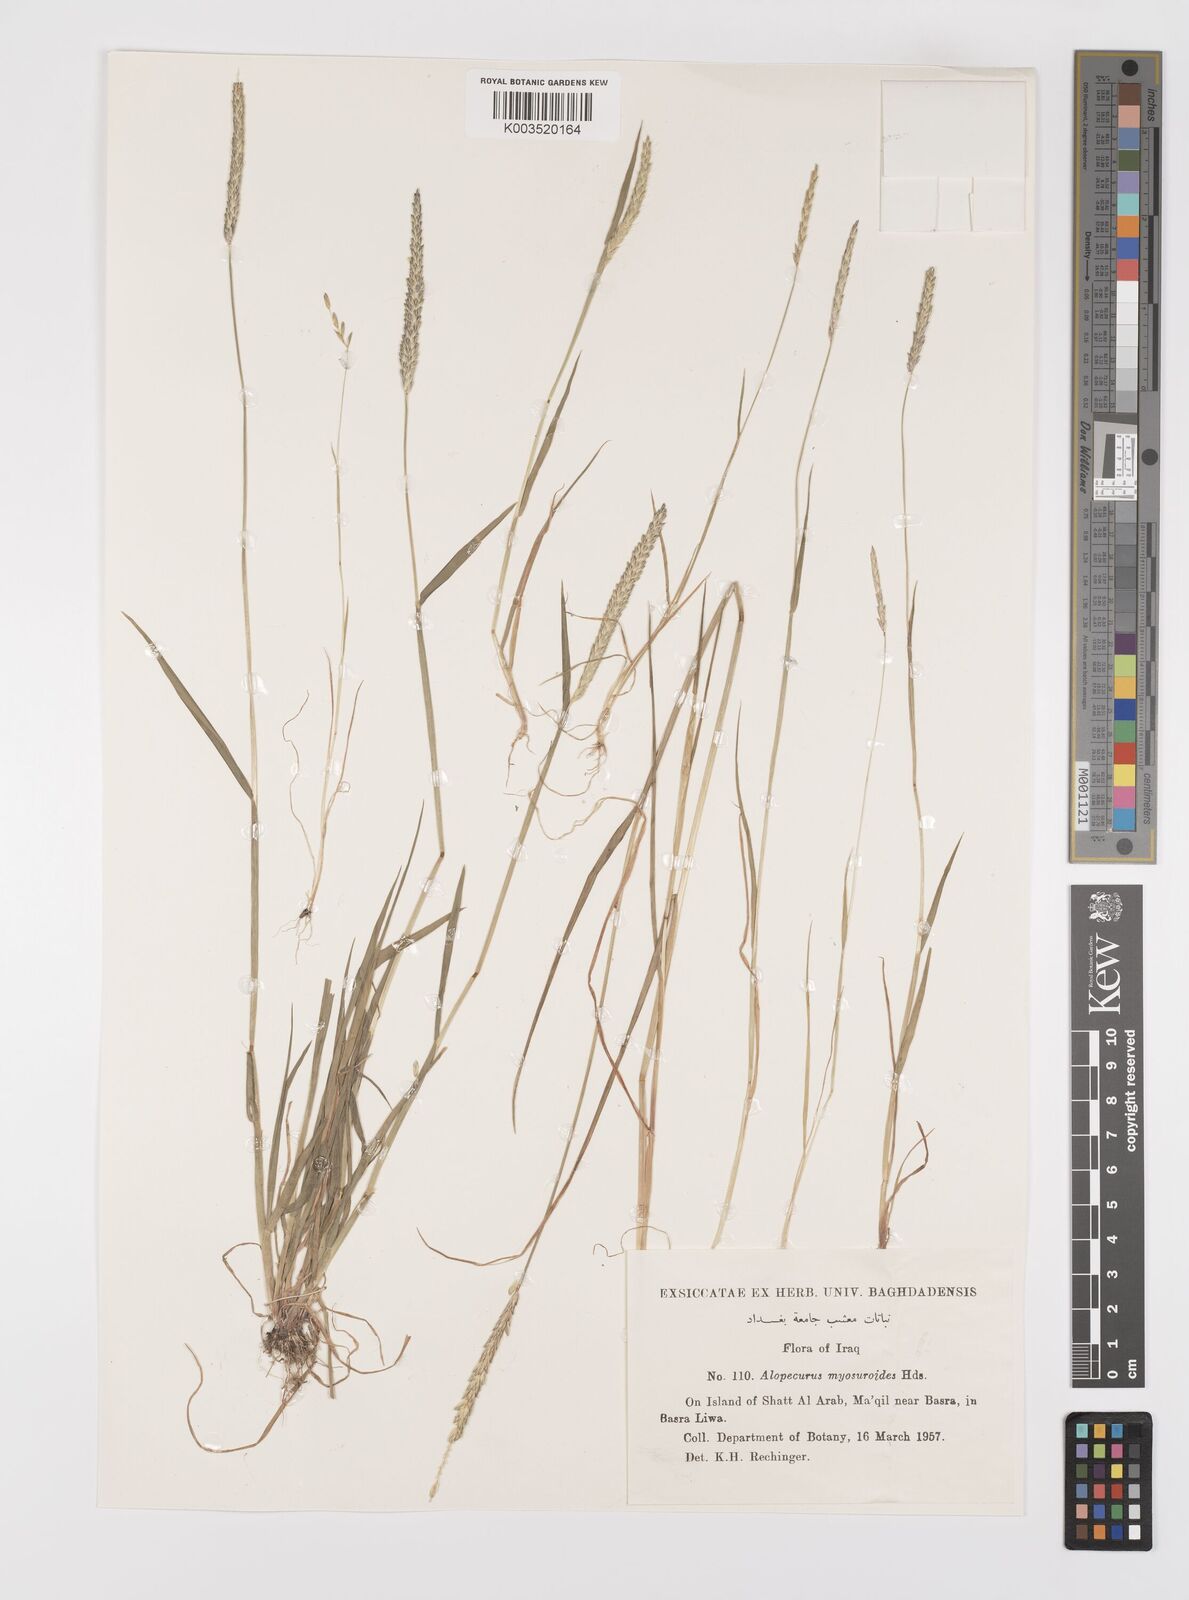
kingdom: Plantae
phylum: Tracheophyta
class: Liliopsida
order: Poales
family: Poaceae
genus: Alopecurus
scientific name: Alopecurus myosuroides
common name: Black-grass
